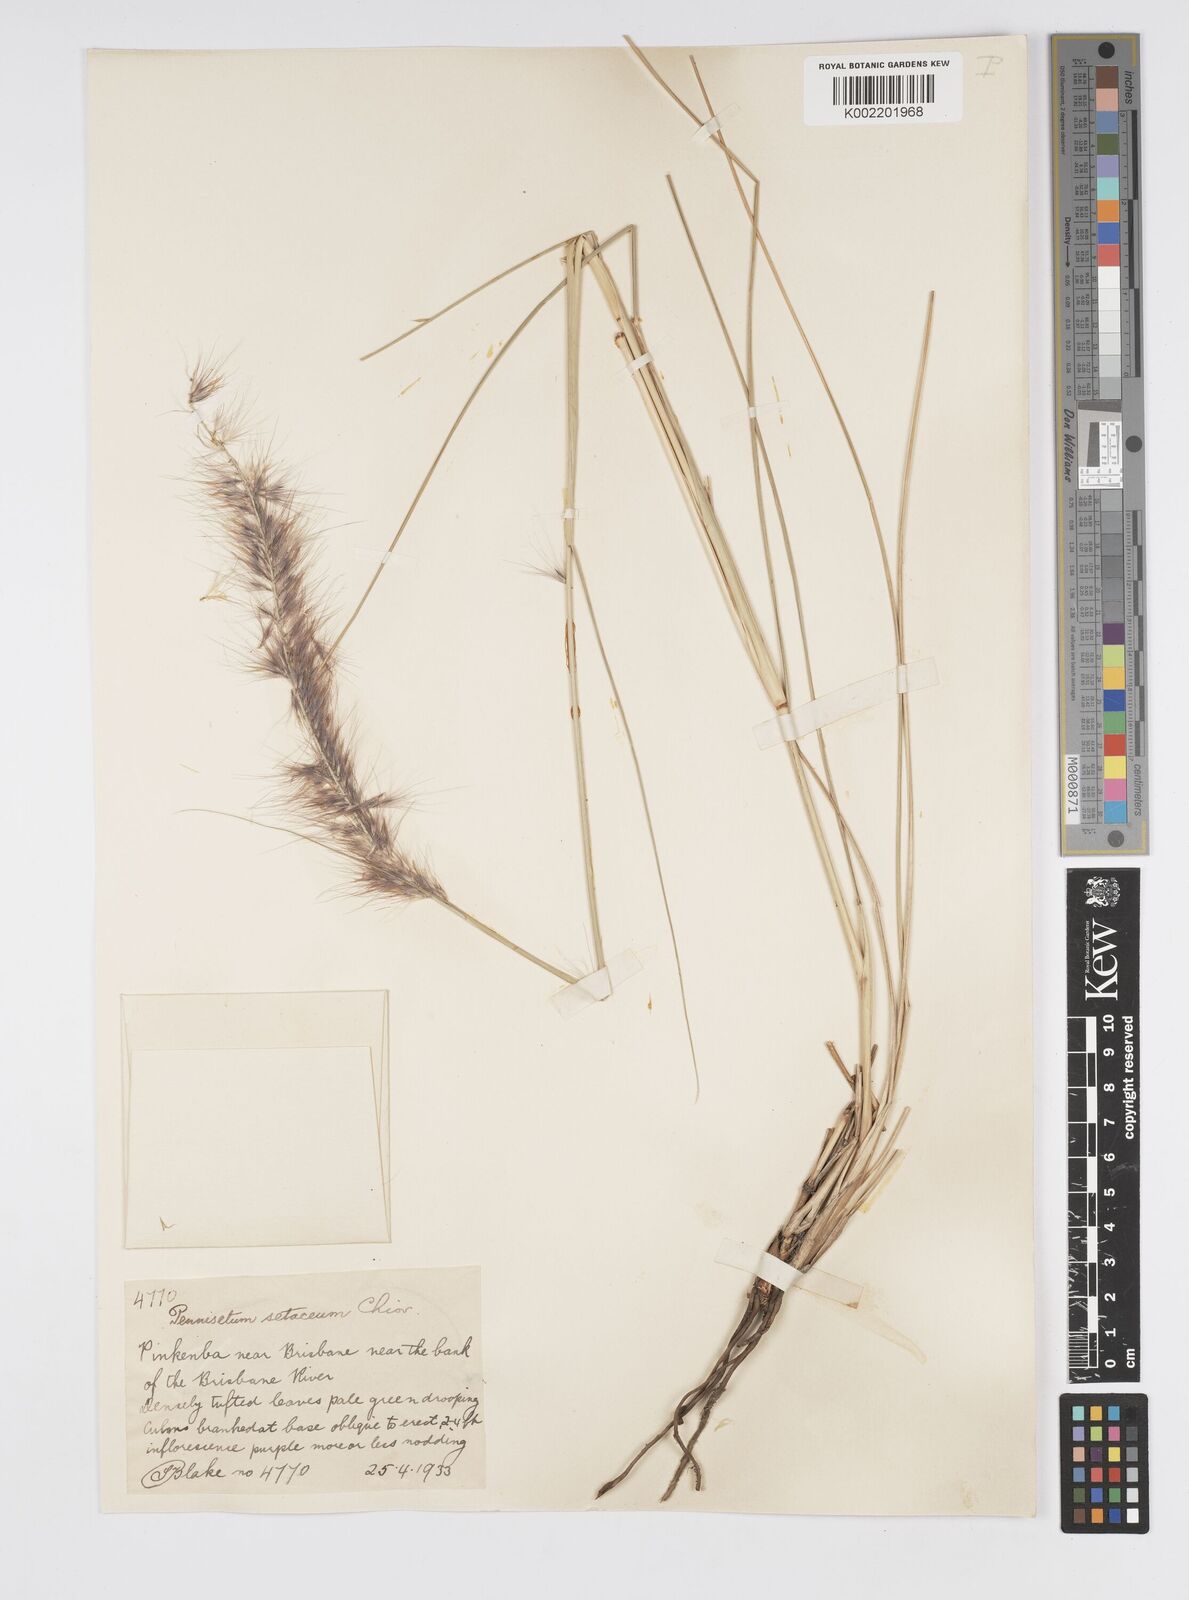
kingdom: Plantae
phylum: Tracheophyta
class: Liliopsida
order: Poales
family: Poaceae
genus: Cenchrus
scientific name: Cenchrus setaceus
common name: Crimson fountaingrass
